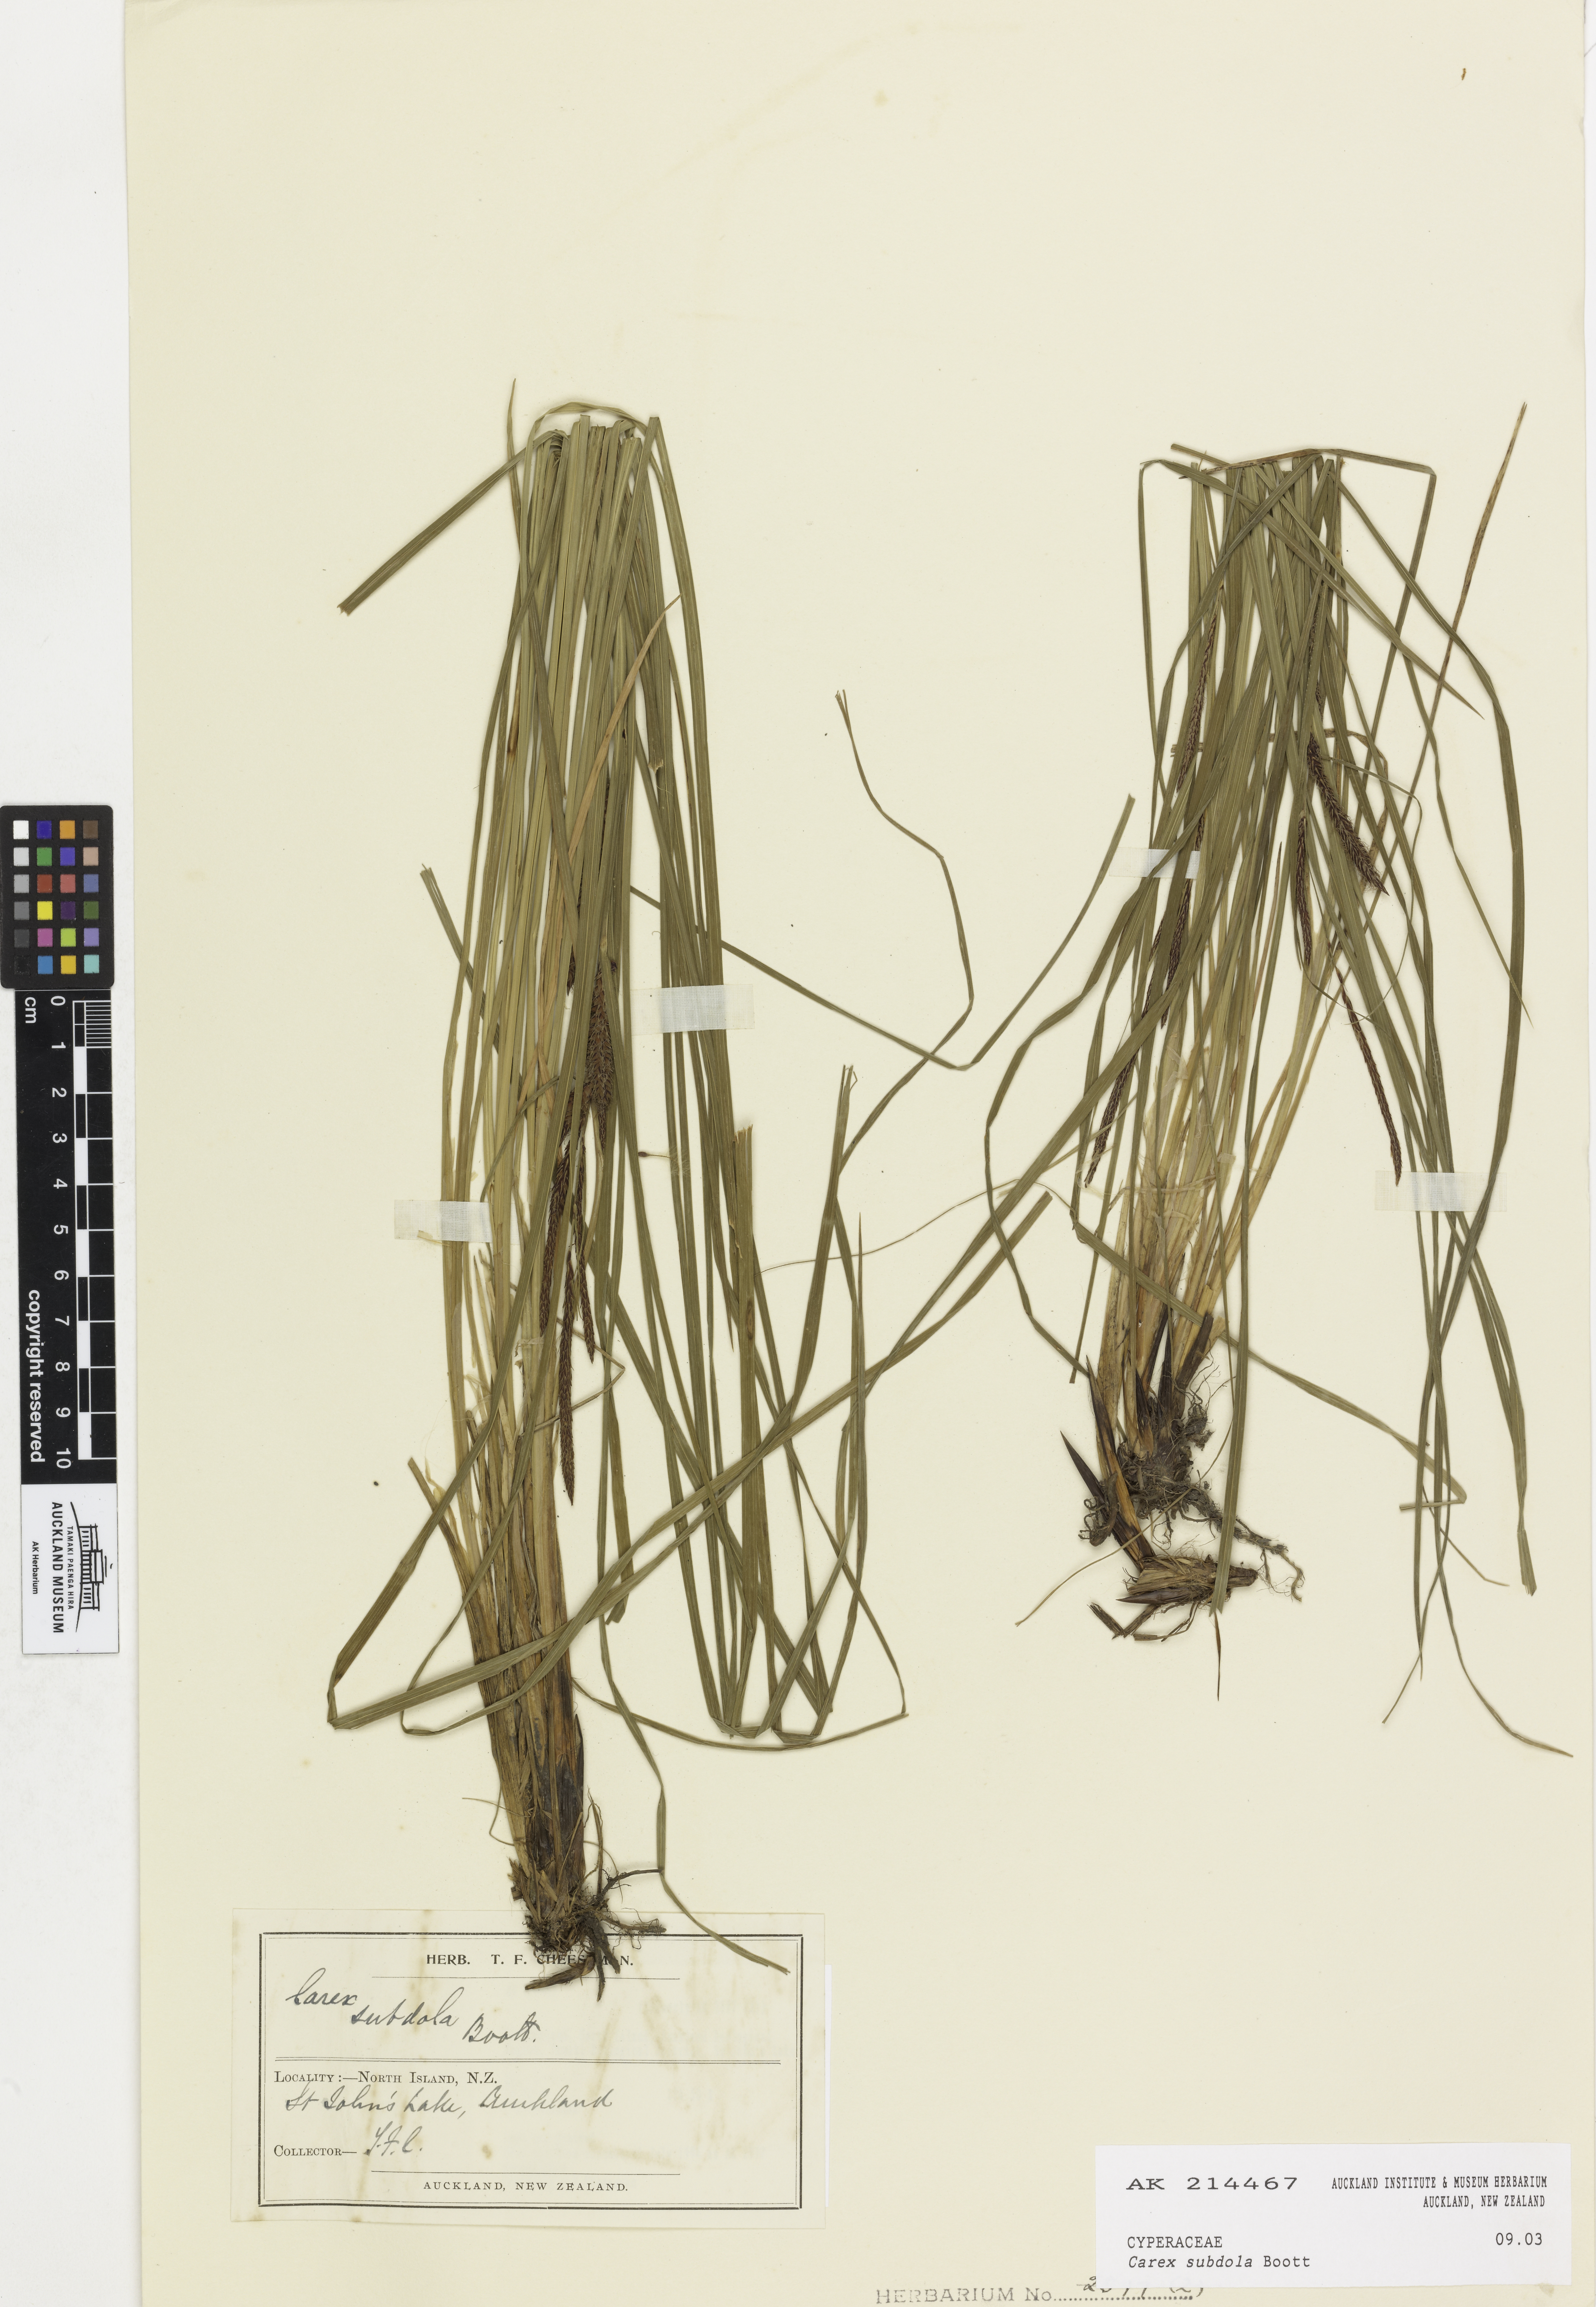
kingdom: Plantae
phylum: Tracheophyta
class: Liliopsida
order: Poales
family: Cyperaceae
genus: Carex
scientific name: Carex subdola
